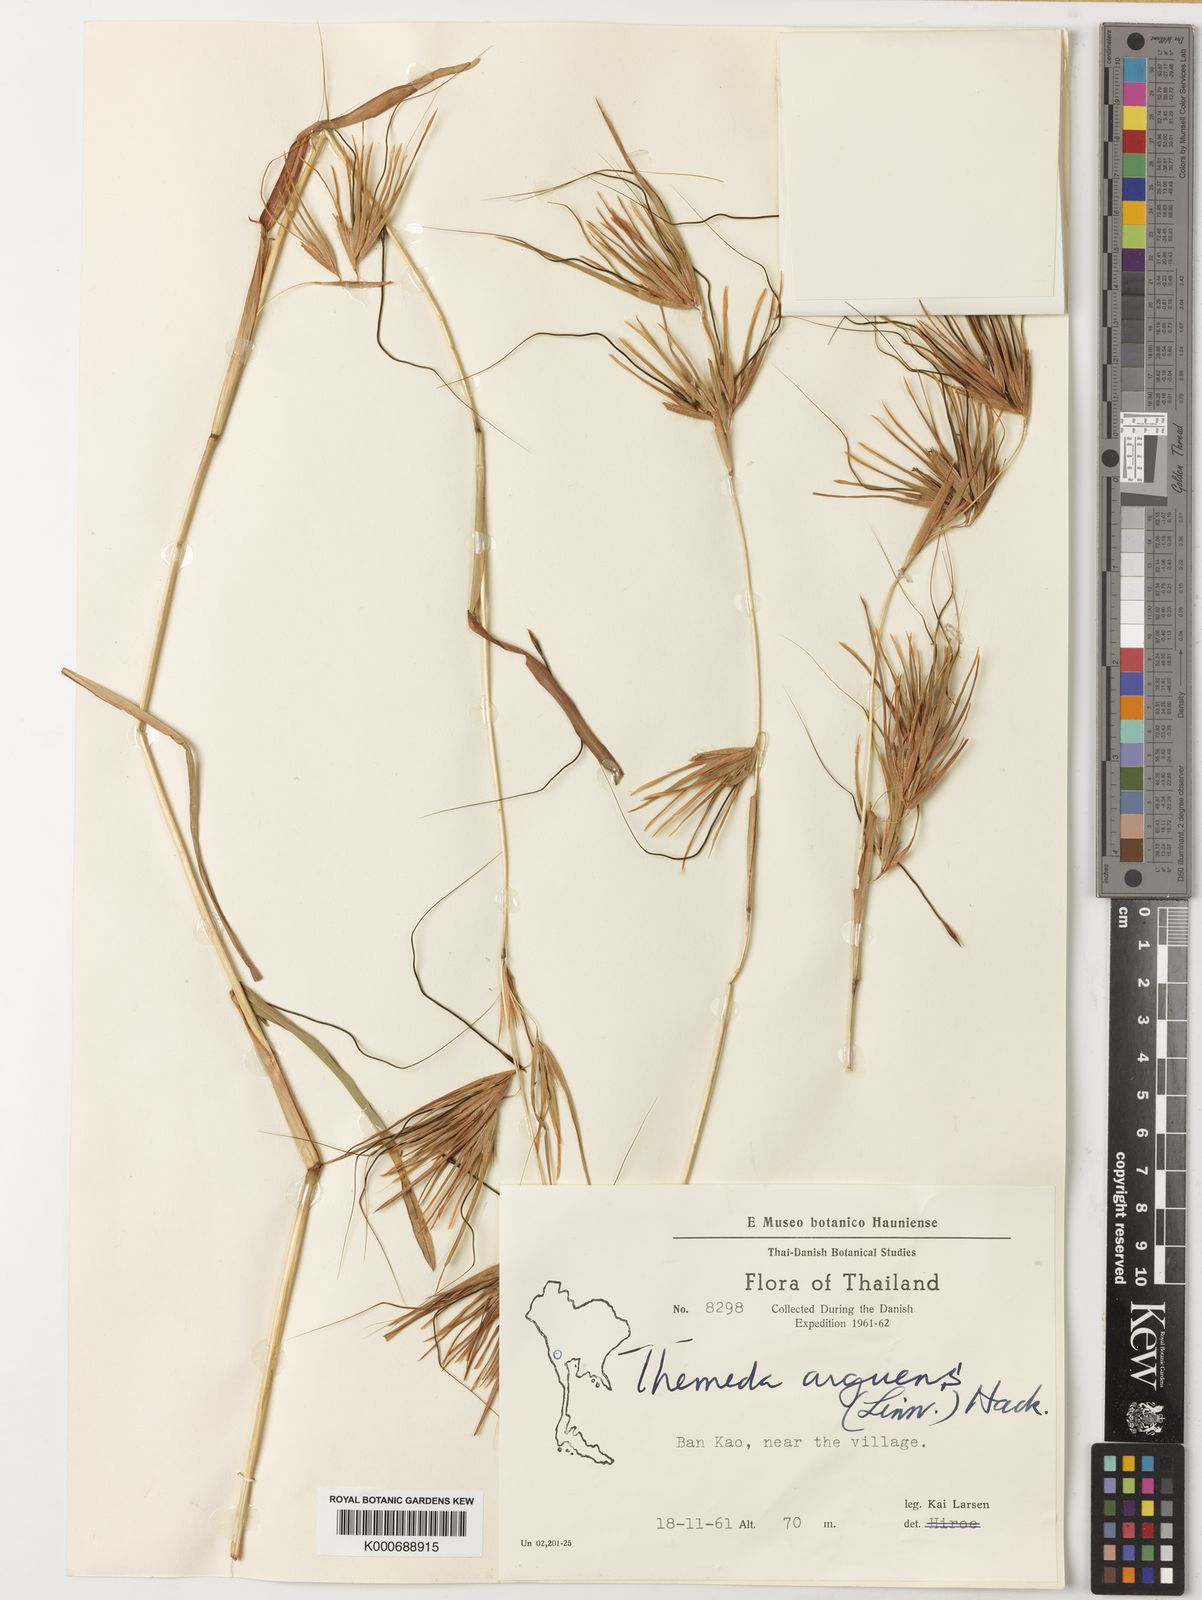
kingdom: Plantae
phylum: Tracheophyta
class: Liliopsida
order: Poales
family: Poaceae
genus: Themeda
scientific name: Themeda arguens
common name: Christmas grass
